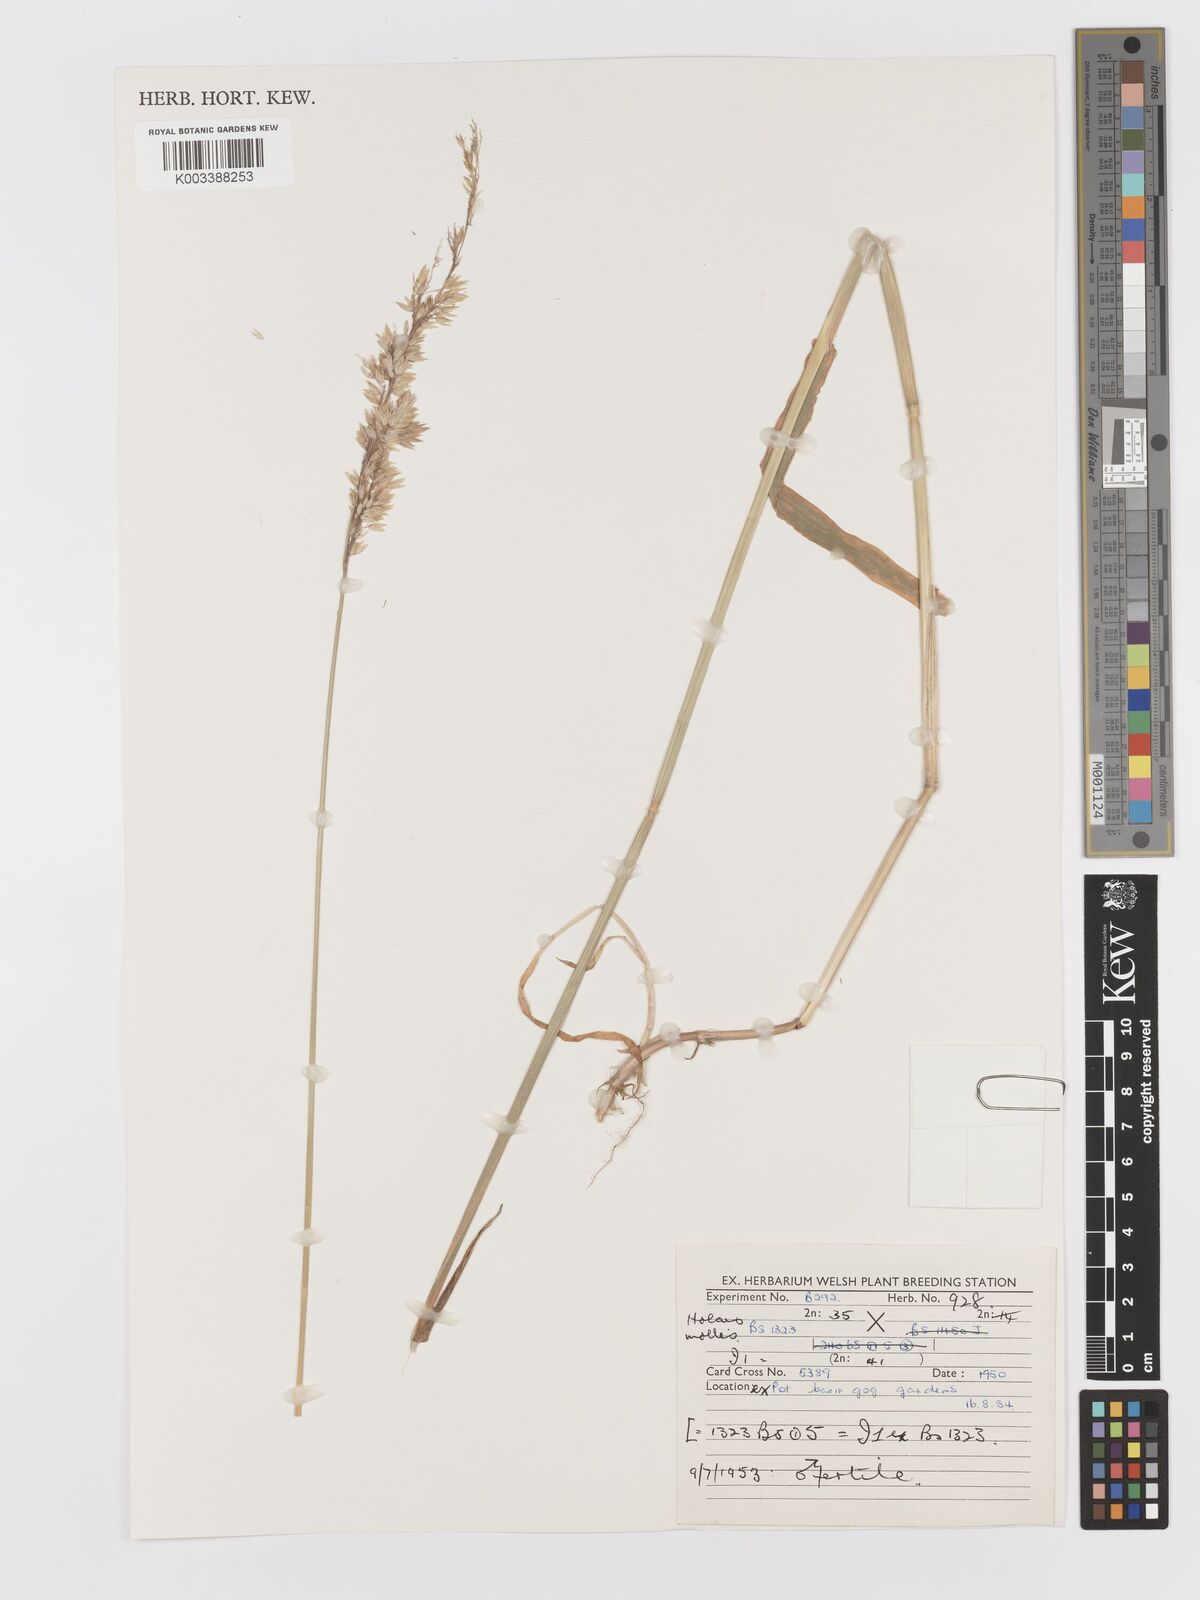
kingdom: Plantae
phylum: Tracheophyta
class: Liliopsida
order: Poales
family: Poaceae
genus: Holcus
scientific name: Holcus mollis
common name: Creeping velvetgrass
